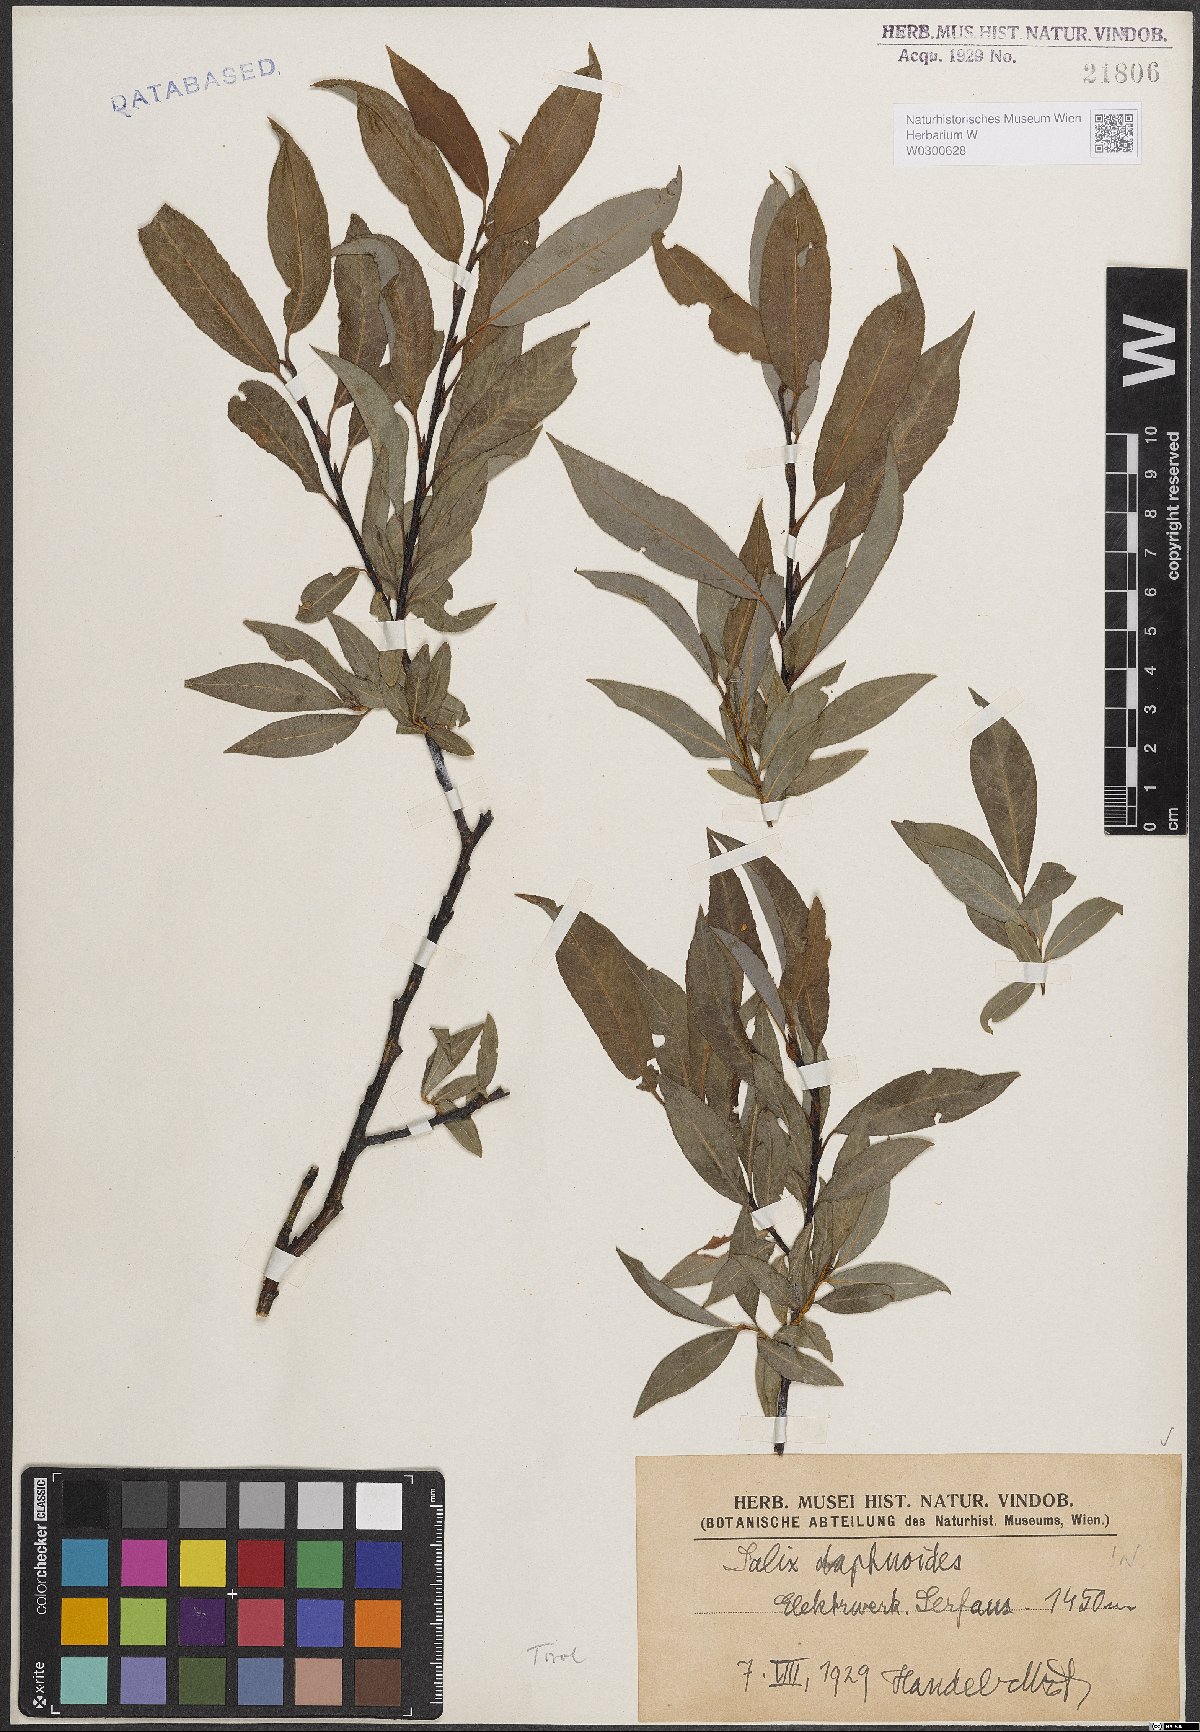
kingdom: Plantae
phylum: Tracheophyta
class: Magnoliopsida
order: Malpighiales
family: Salicaceae
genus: Salix
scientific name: Salix daphnoides
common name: European violet-willow
